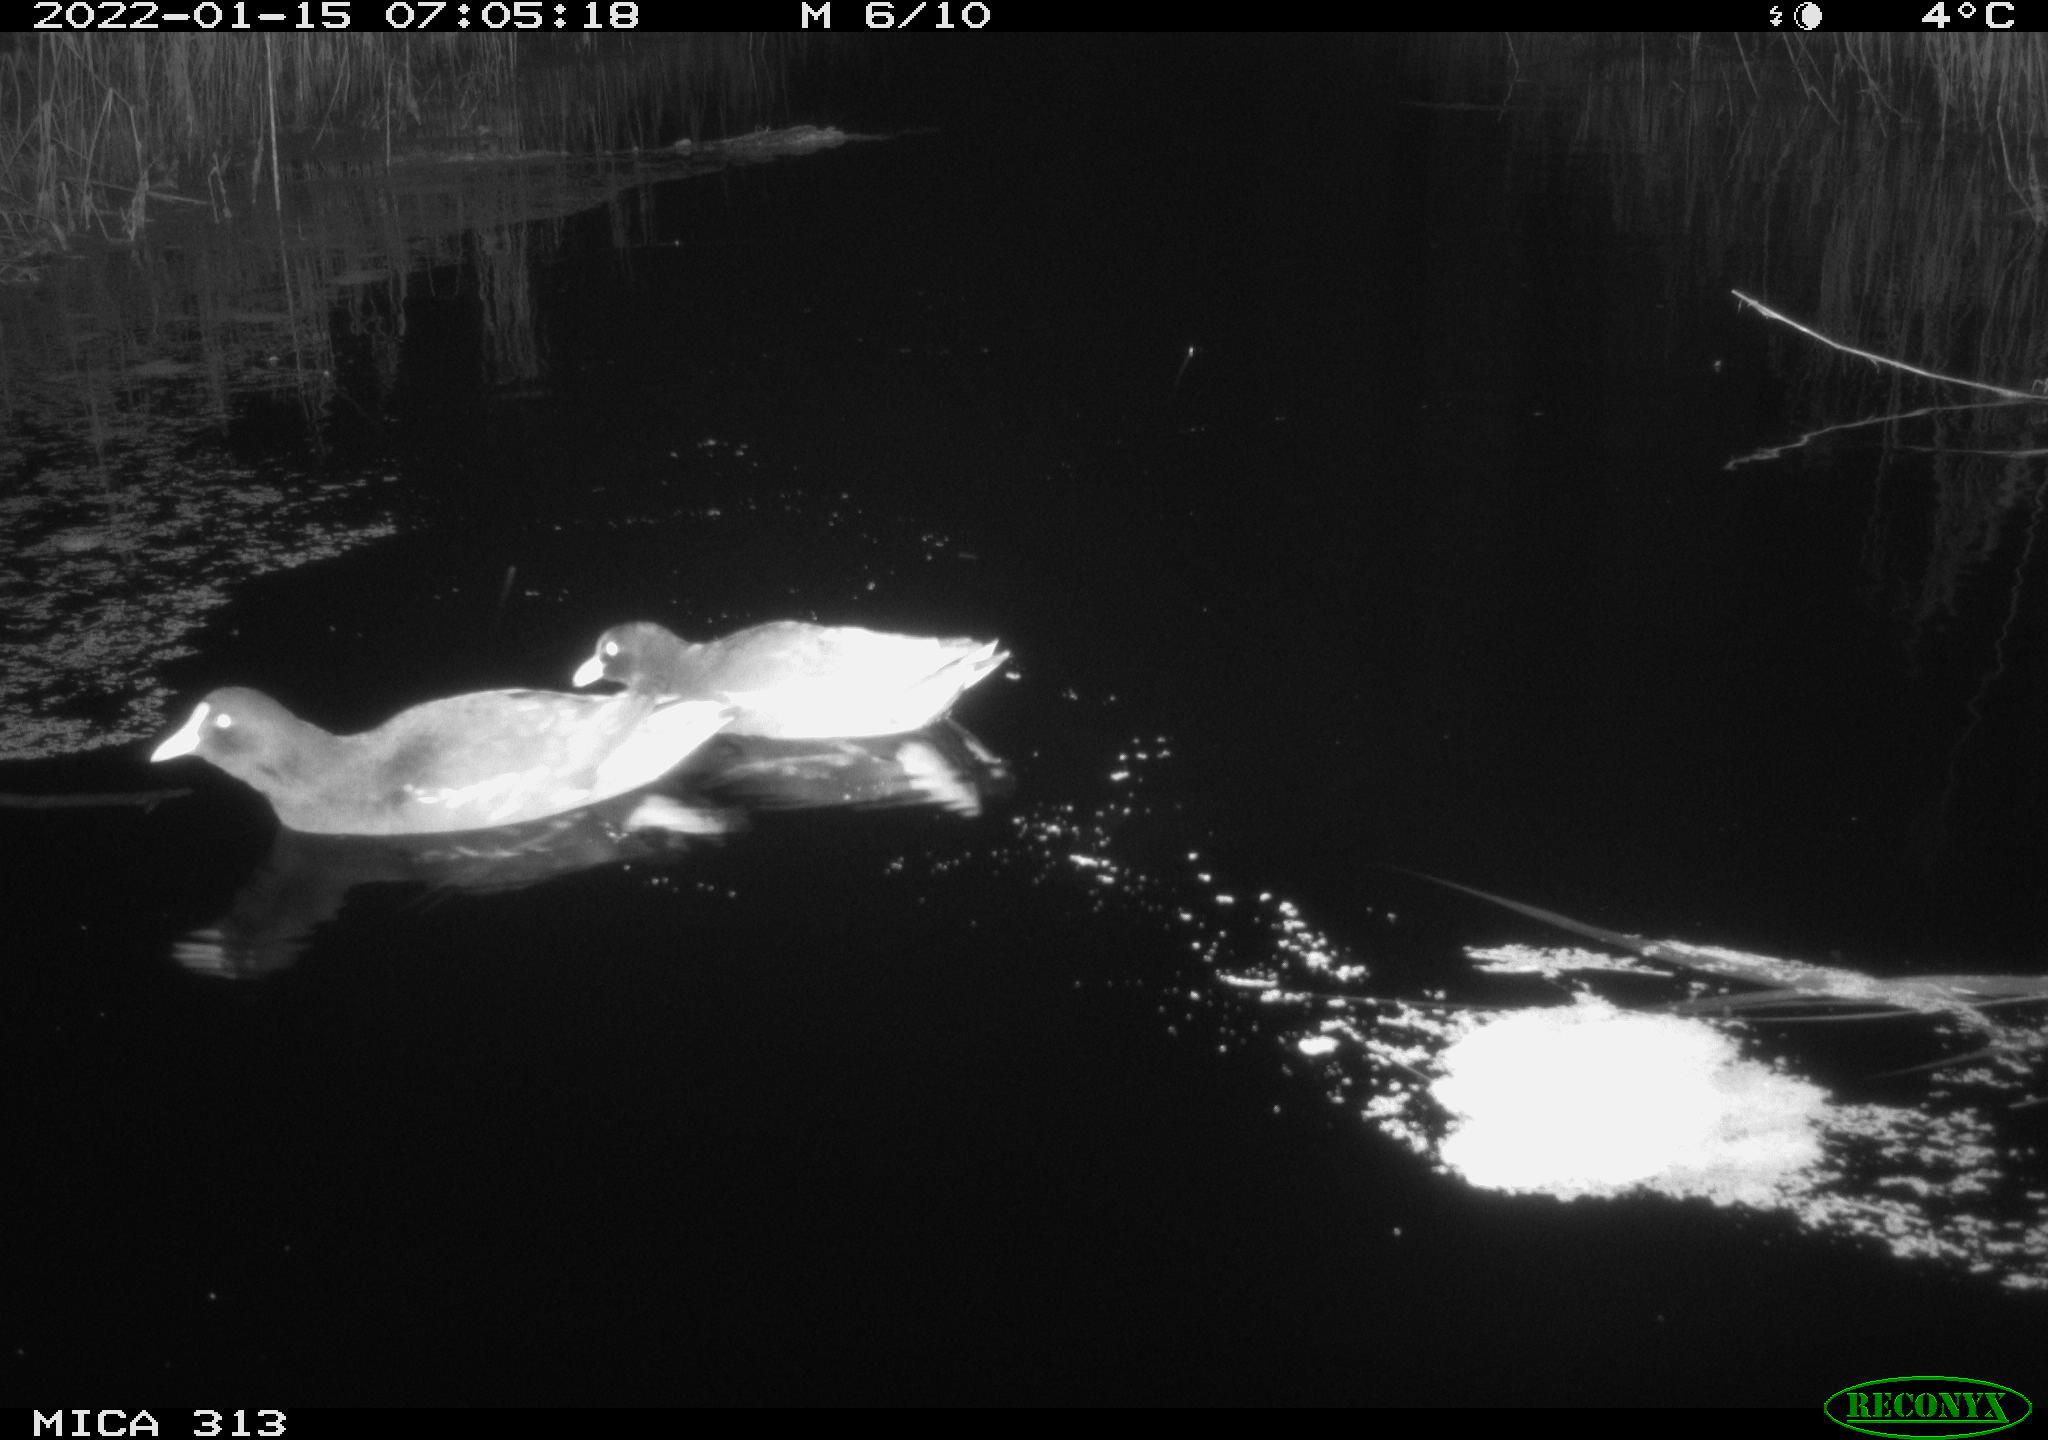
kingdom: Animalia
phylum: Chordata
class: Aves
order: Anseriformes
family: Anatidae
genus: Anas
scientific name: Anas
